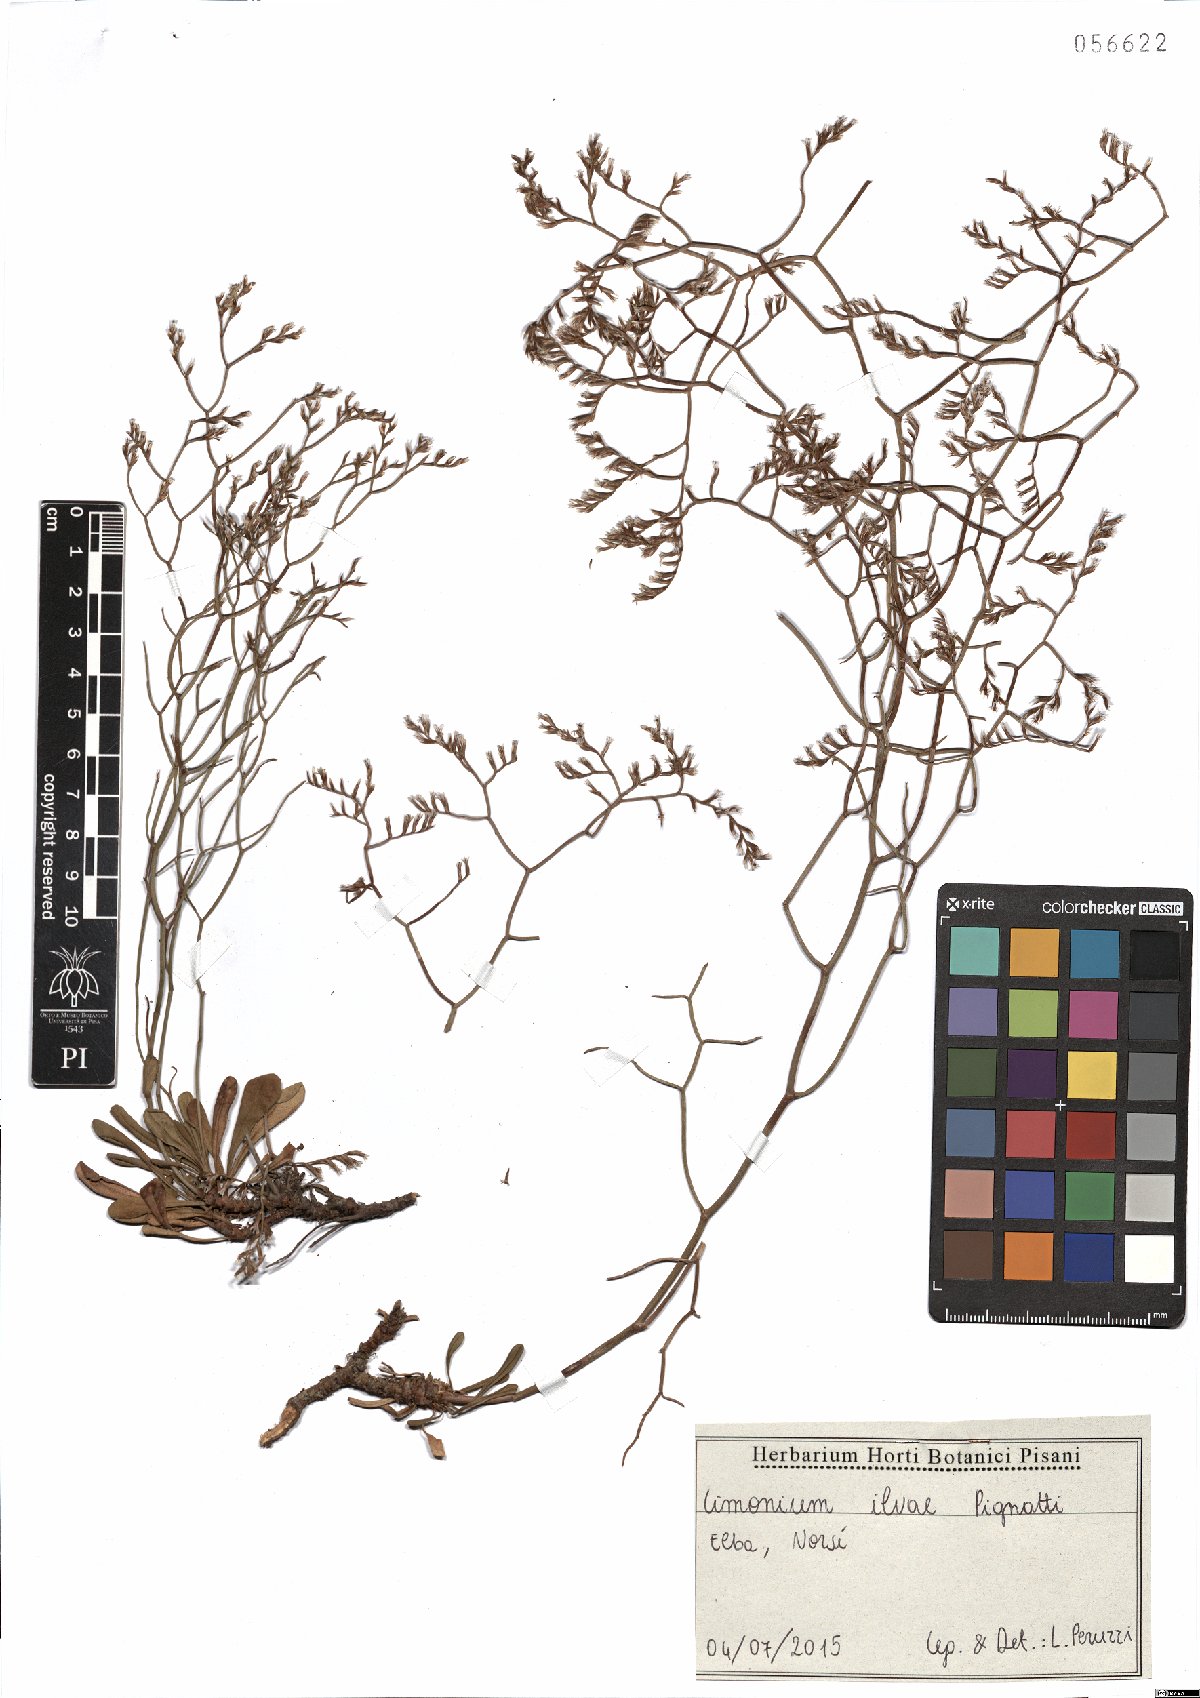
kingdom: Plantae
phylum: Tracheophyta
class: Magnoliopsida
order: Caryophyllales
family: Plumbaginaceae
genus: Limonium
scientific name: Limonium ilvae
